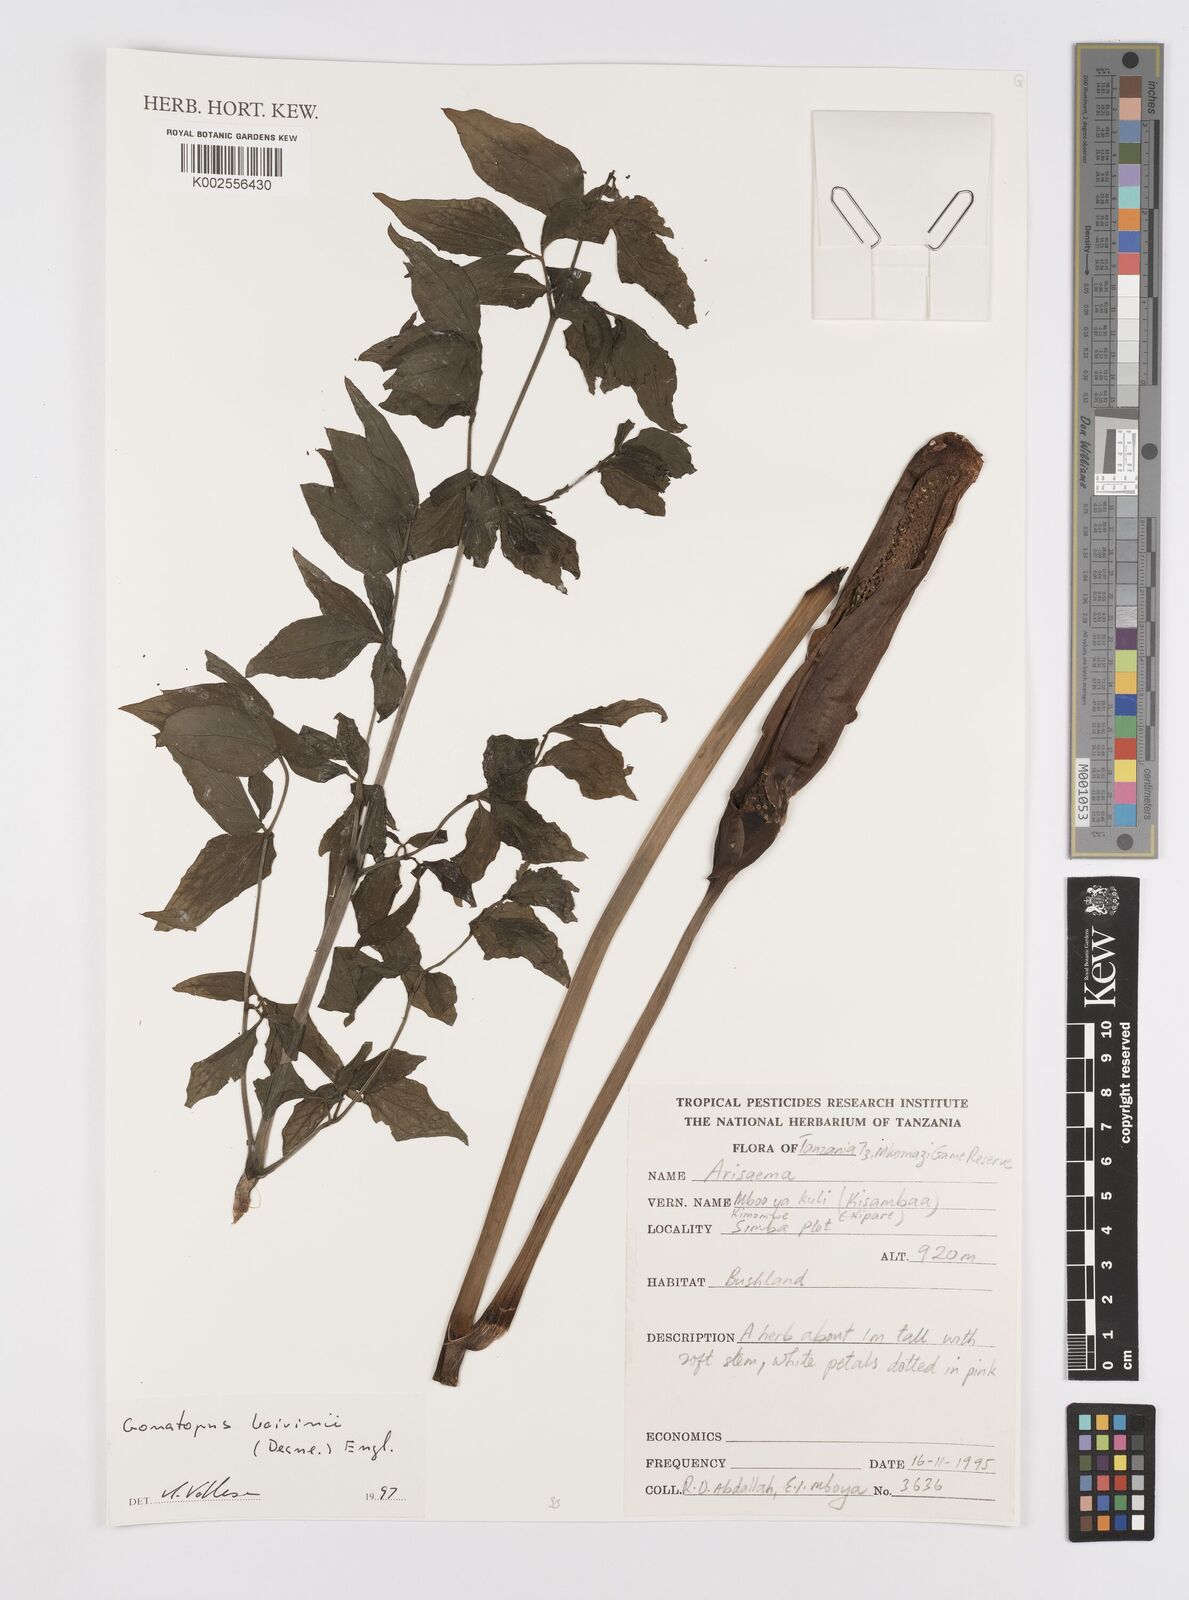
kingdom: Plantae
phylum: Tracheophyta
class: Liliopsida
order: Alismatales
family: Araceae
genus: Gonatopus
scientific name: Gonatopus boivinii
